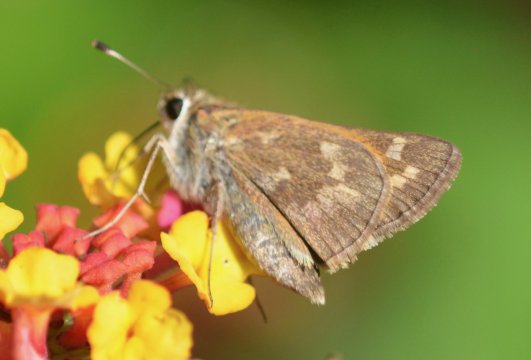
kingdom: Animalia
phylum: Arthropoda
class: Insecta
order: Lepidoptera
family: Hesperiidae
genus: Atalopedes
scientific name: Atalopedes campestris
